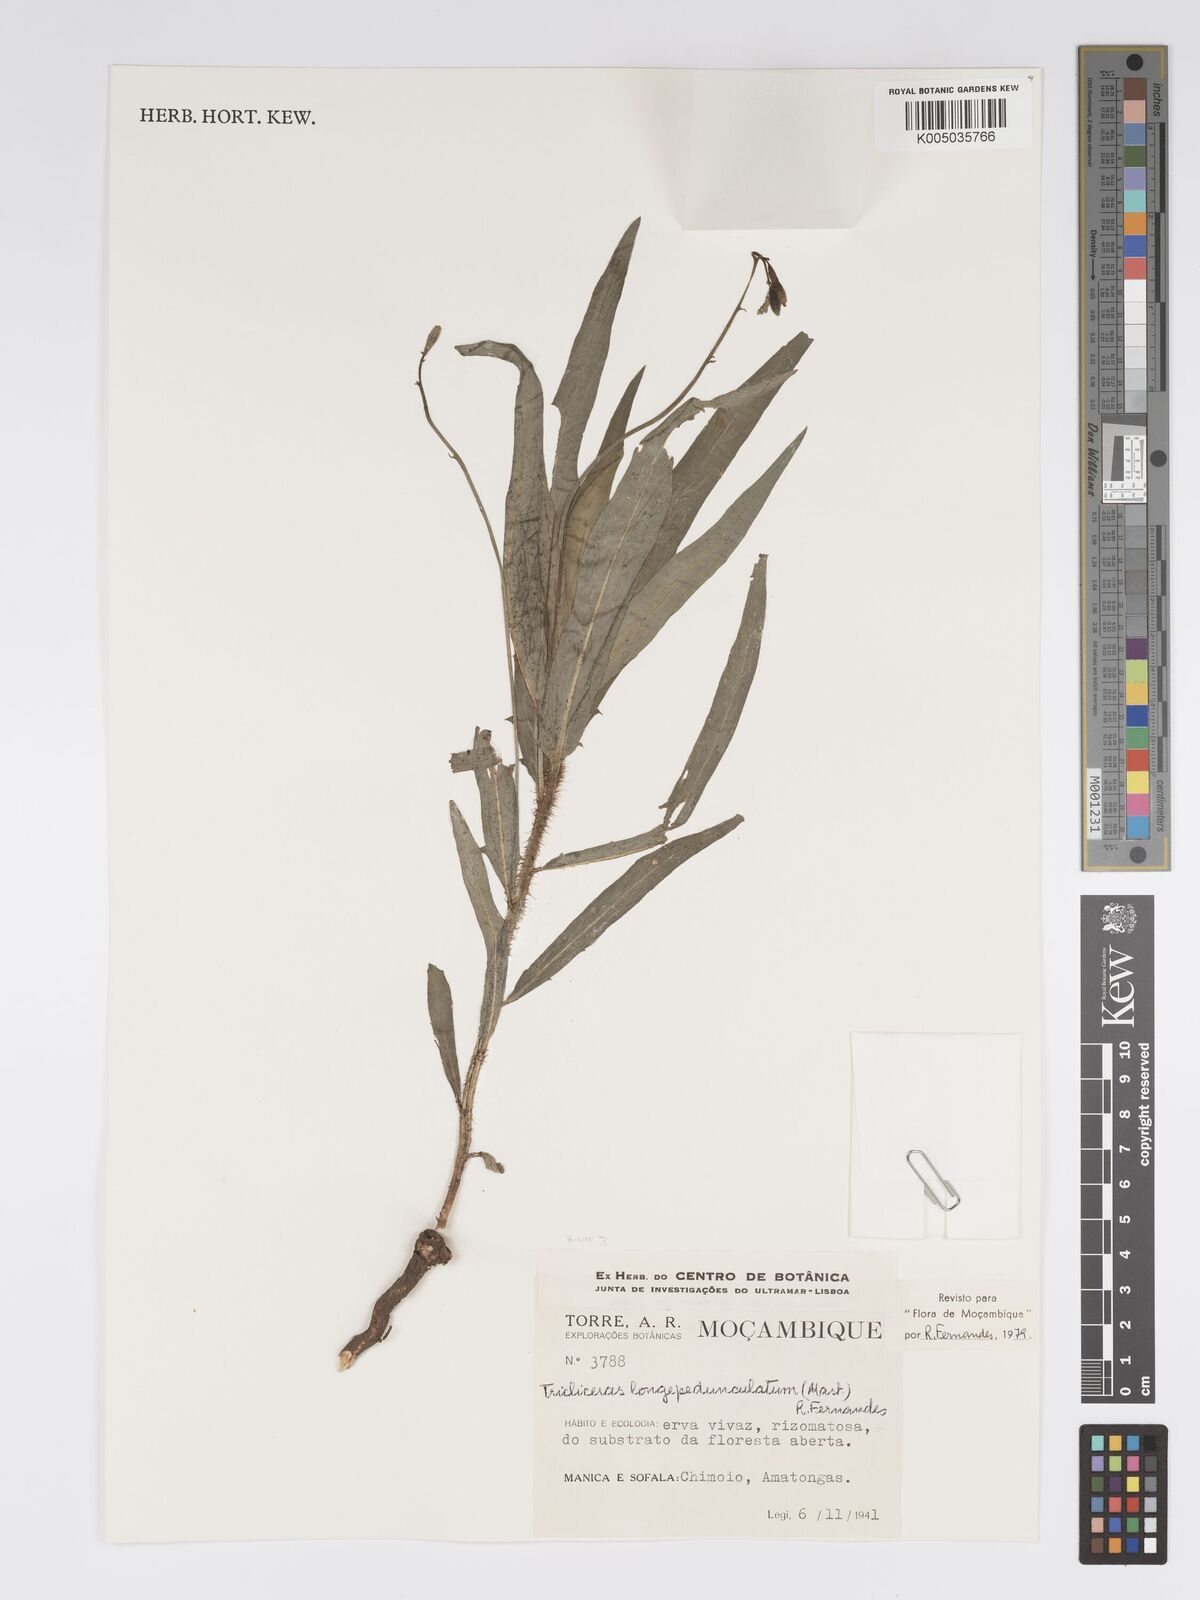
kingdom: Plantae
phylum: Tracheophyta
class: Magnoliopsida
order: Malpighiales
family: Turneraceae
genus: Tricliceras
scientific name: Tricliceras longepedunculatum
